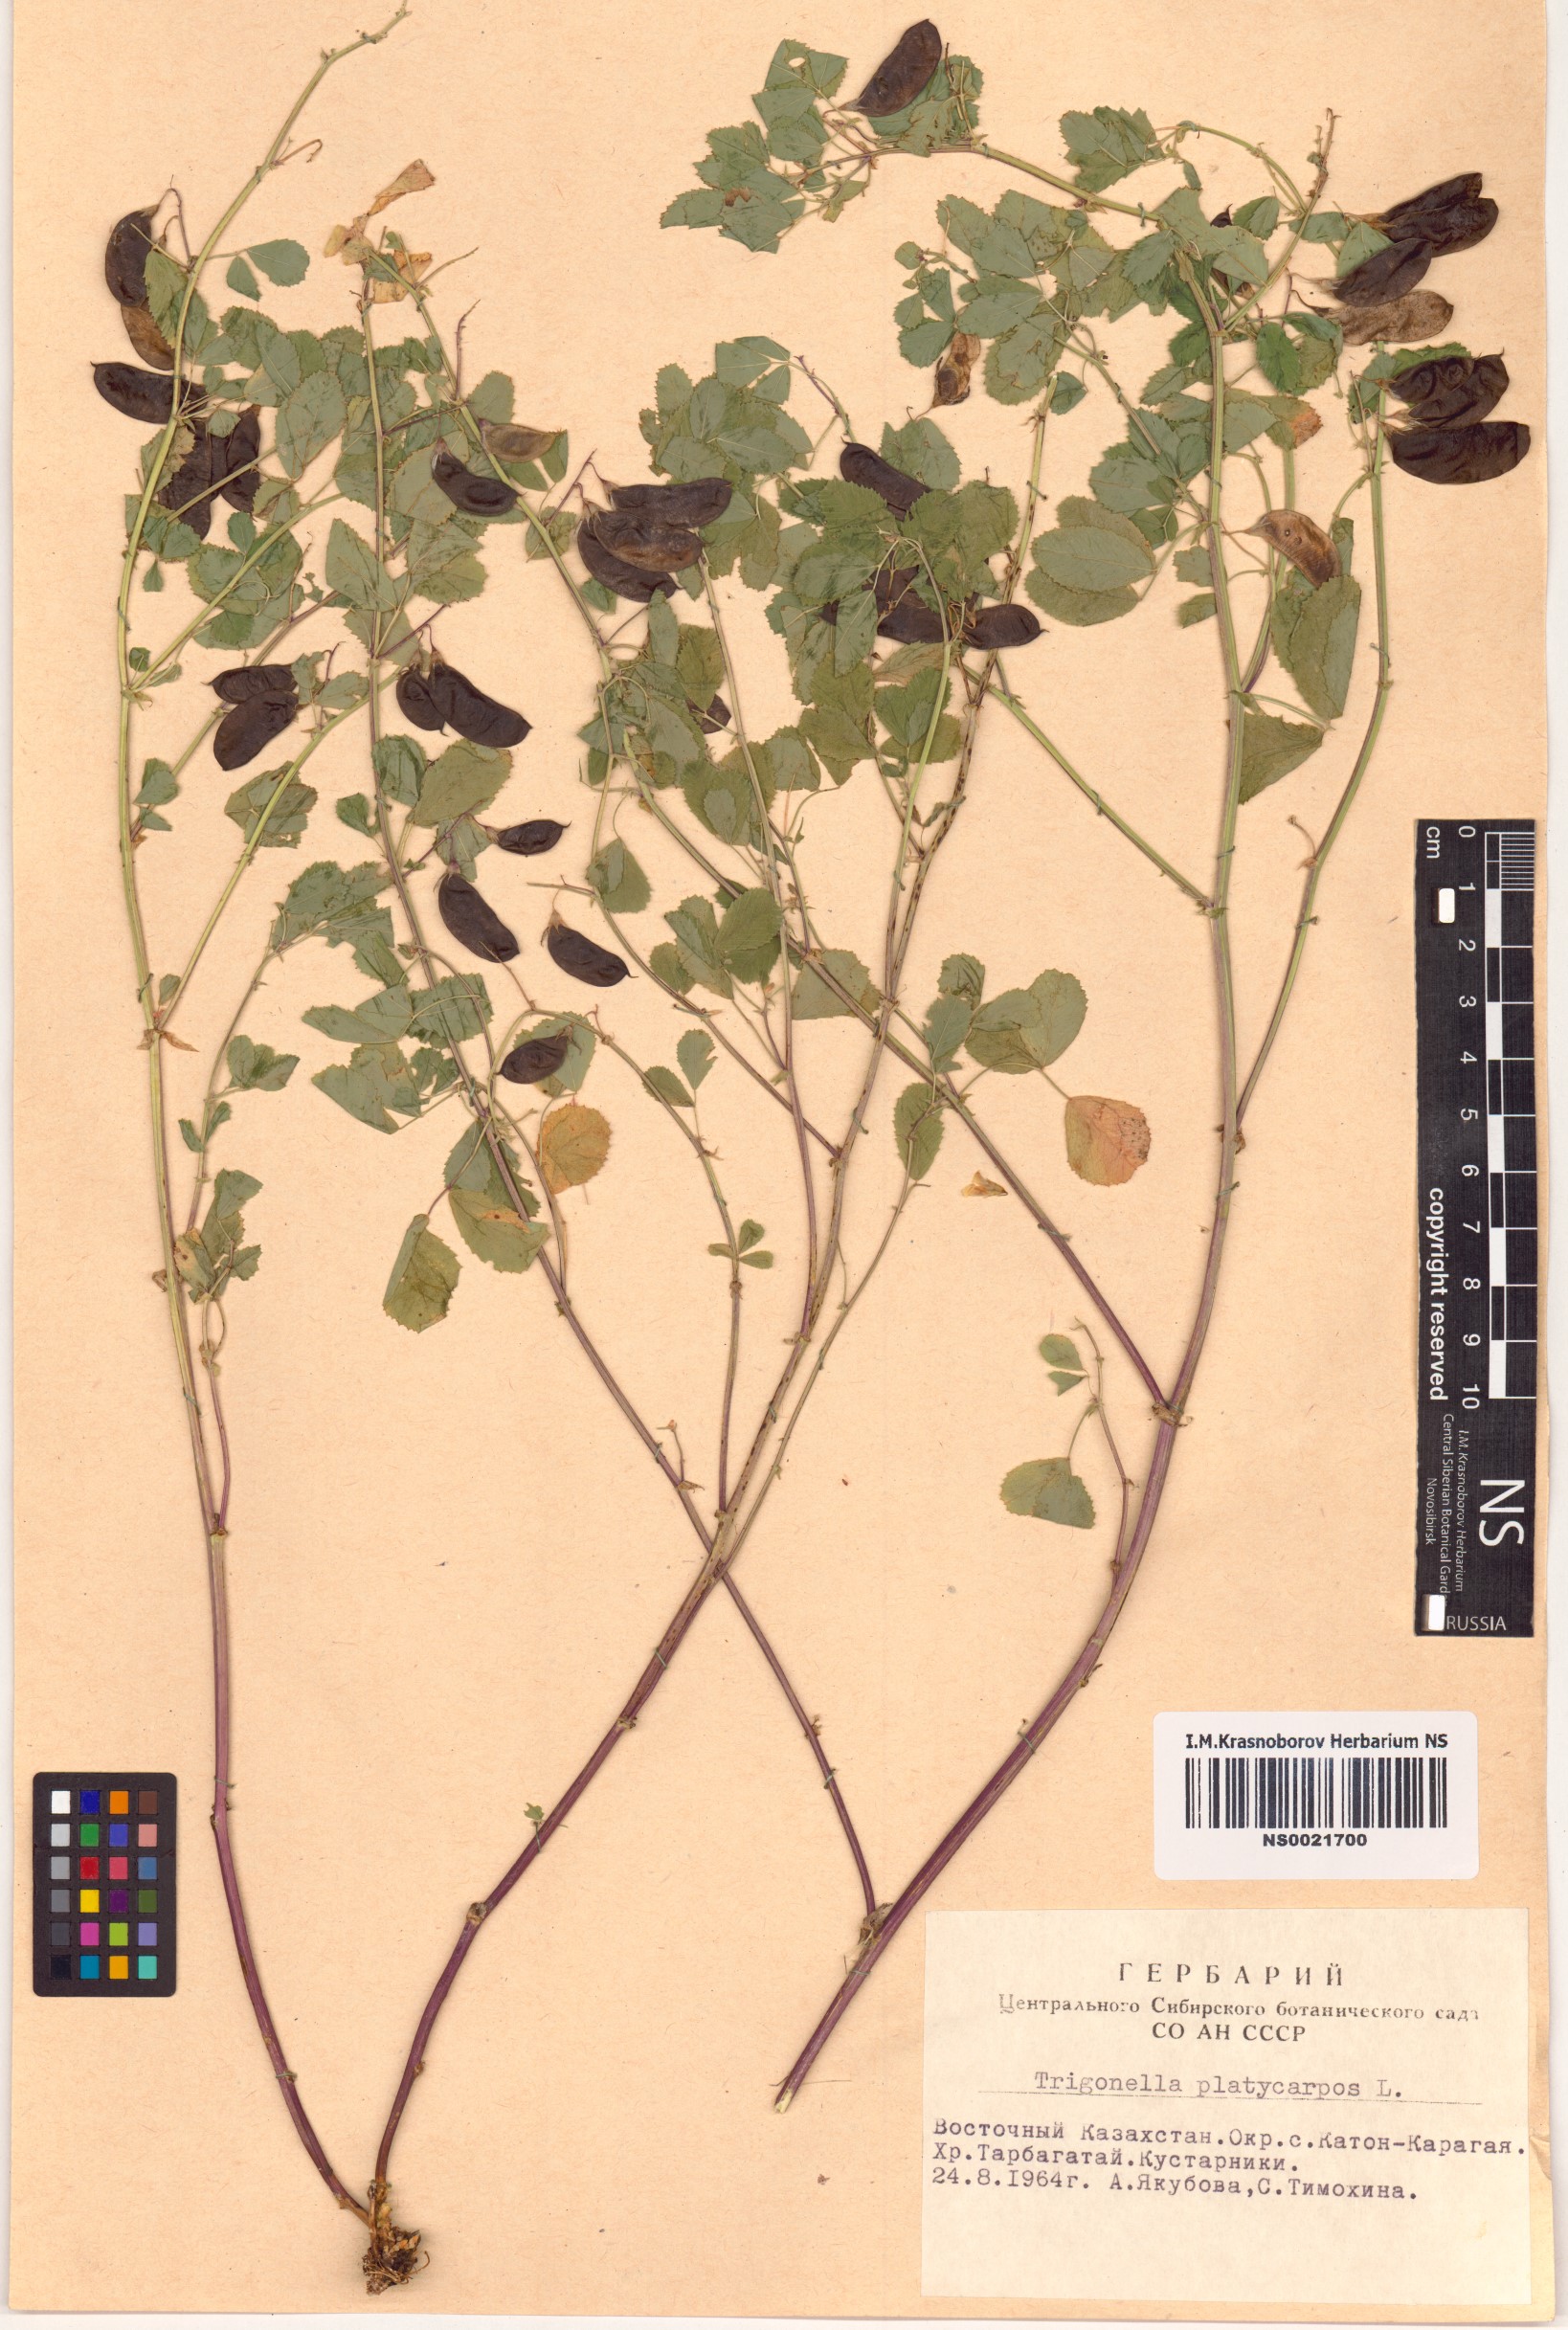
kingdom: Plantae
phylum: Tracheophyta
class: Magnoliopsida
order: Fabales
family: Fabaceae
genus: Medicago
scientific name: Medicago platycarpos
